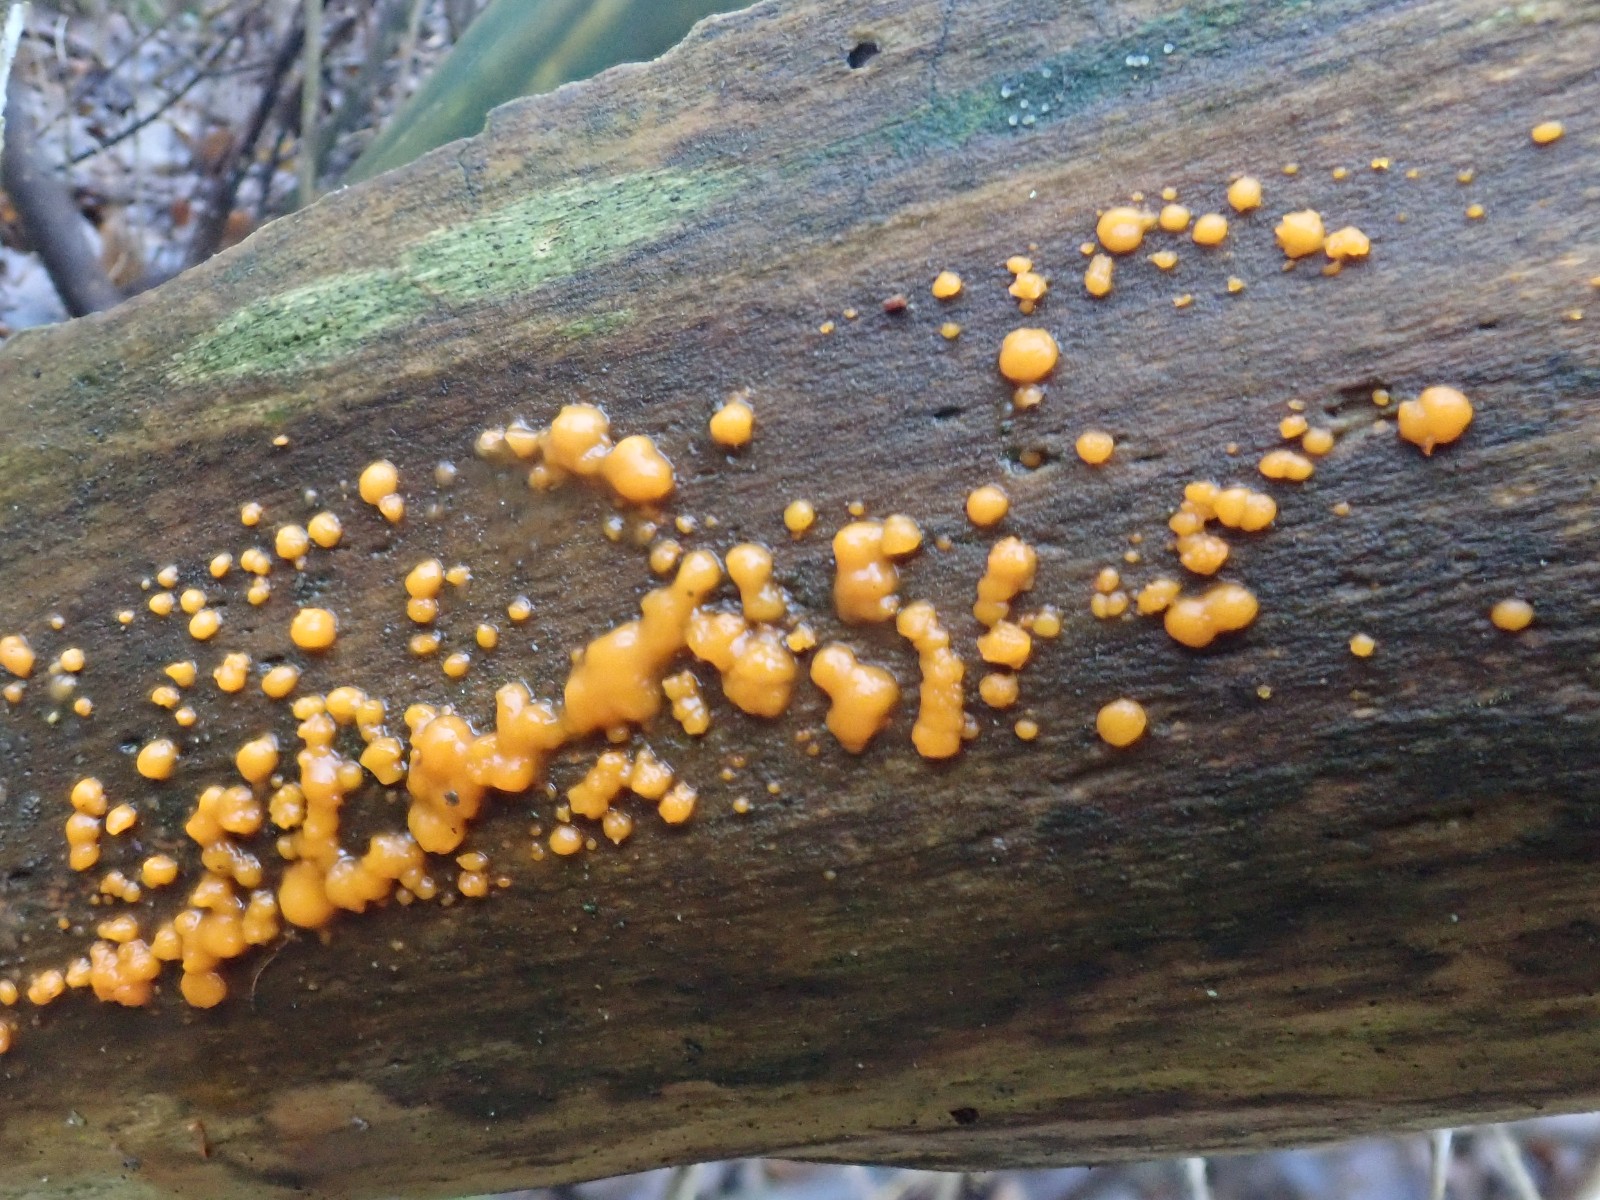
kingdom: Fungi
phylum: Basidiomycota
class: Dacrymycetes
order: Dacrymycetales
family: Dacrymycetaceae
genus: Dacrymyces
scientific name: Dacrymyces stillatus
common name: almindelig tåresvamp
